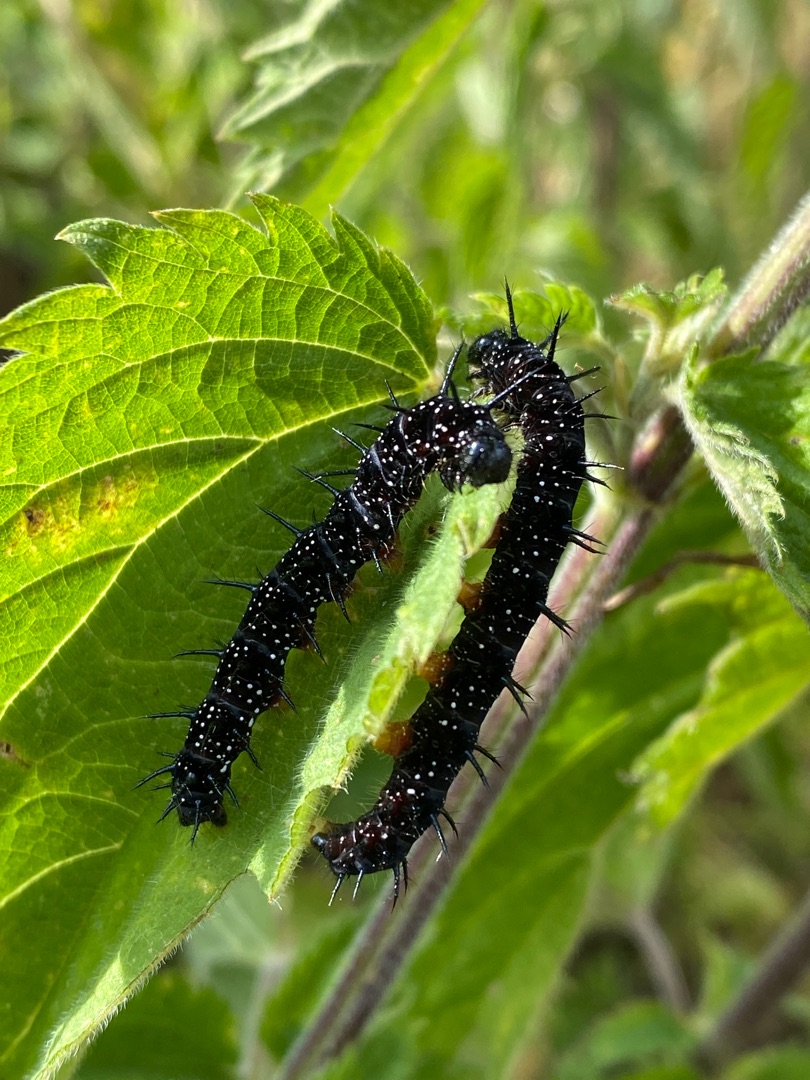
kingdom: Animalia
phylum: Arthropoda
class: Insecta
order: Lepidoptera
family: Nymphalidae
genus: Aglais
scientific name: Aglais io
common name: Dagpåfugleøje
